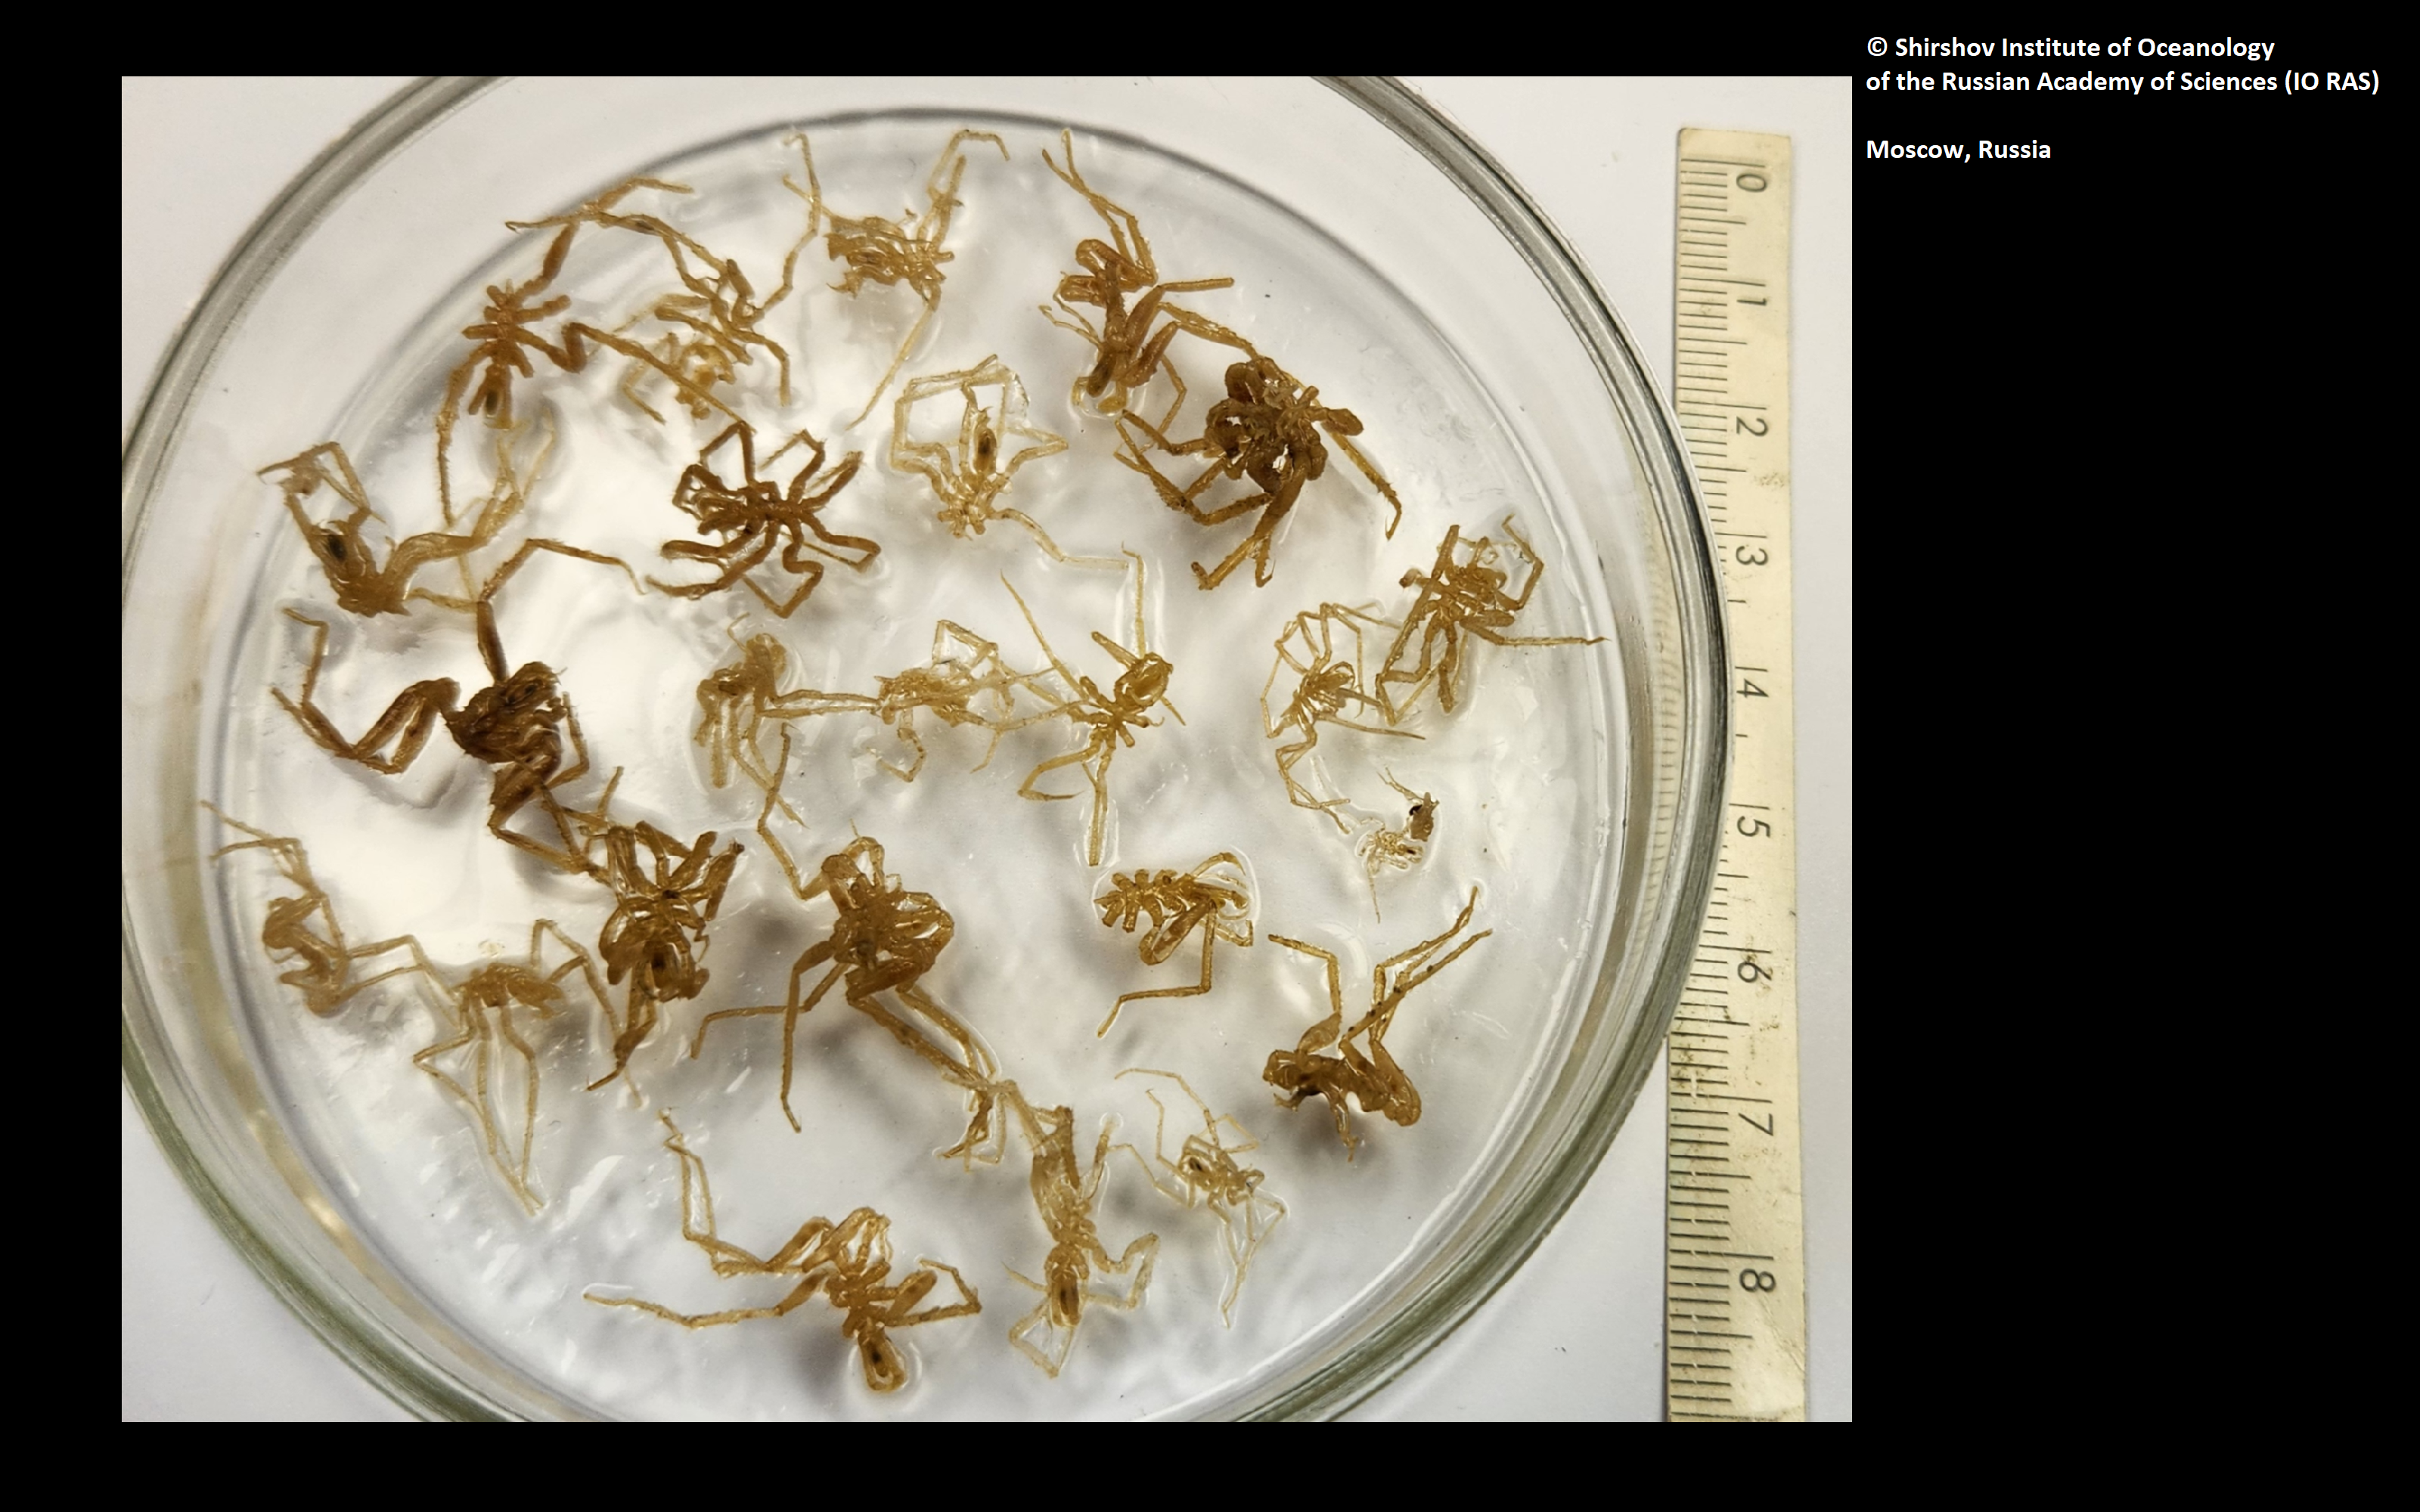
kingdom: Animalia
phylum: Arthropoda
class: Pycnogonida
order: Pantopoda
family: Nymphonidae
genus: Nymphon
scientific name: Nymphon laneum
